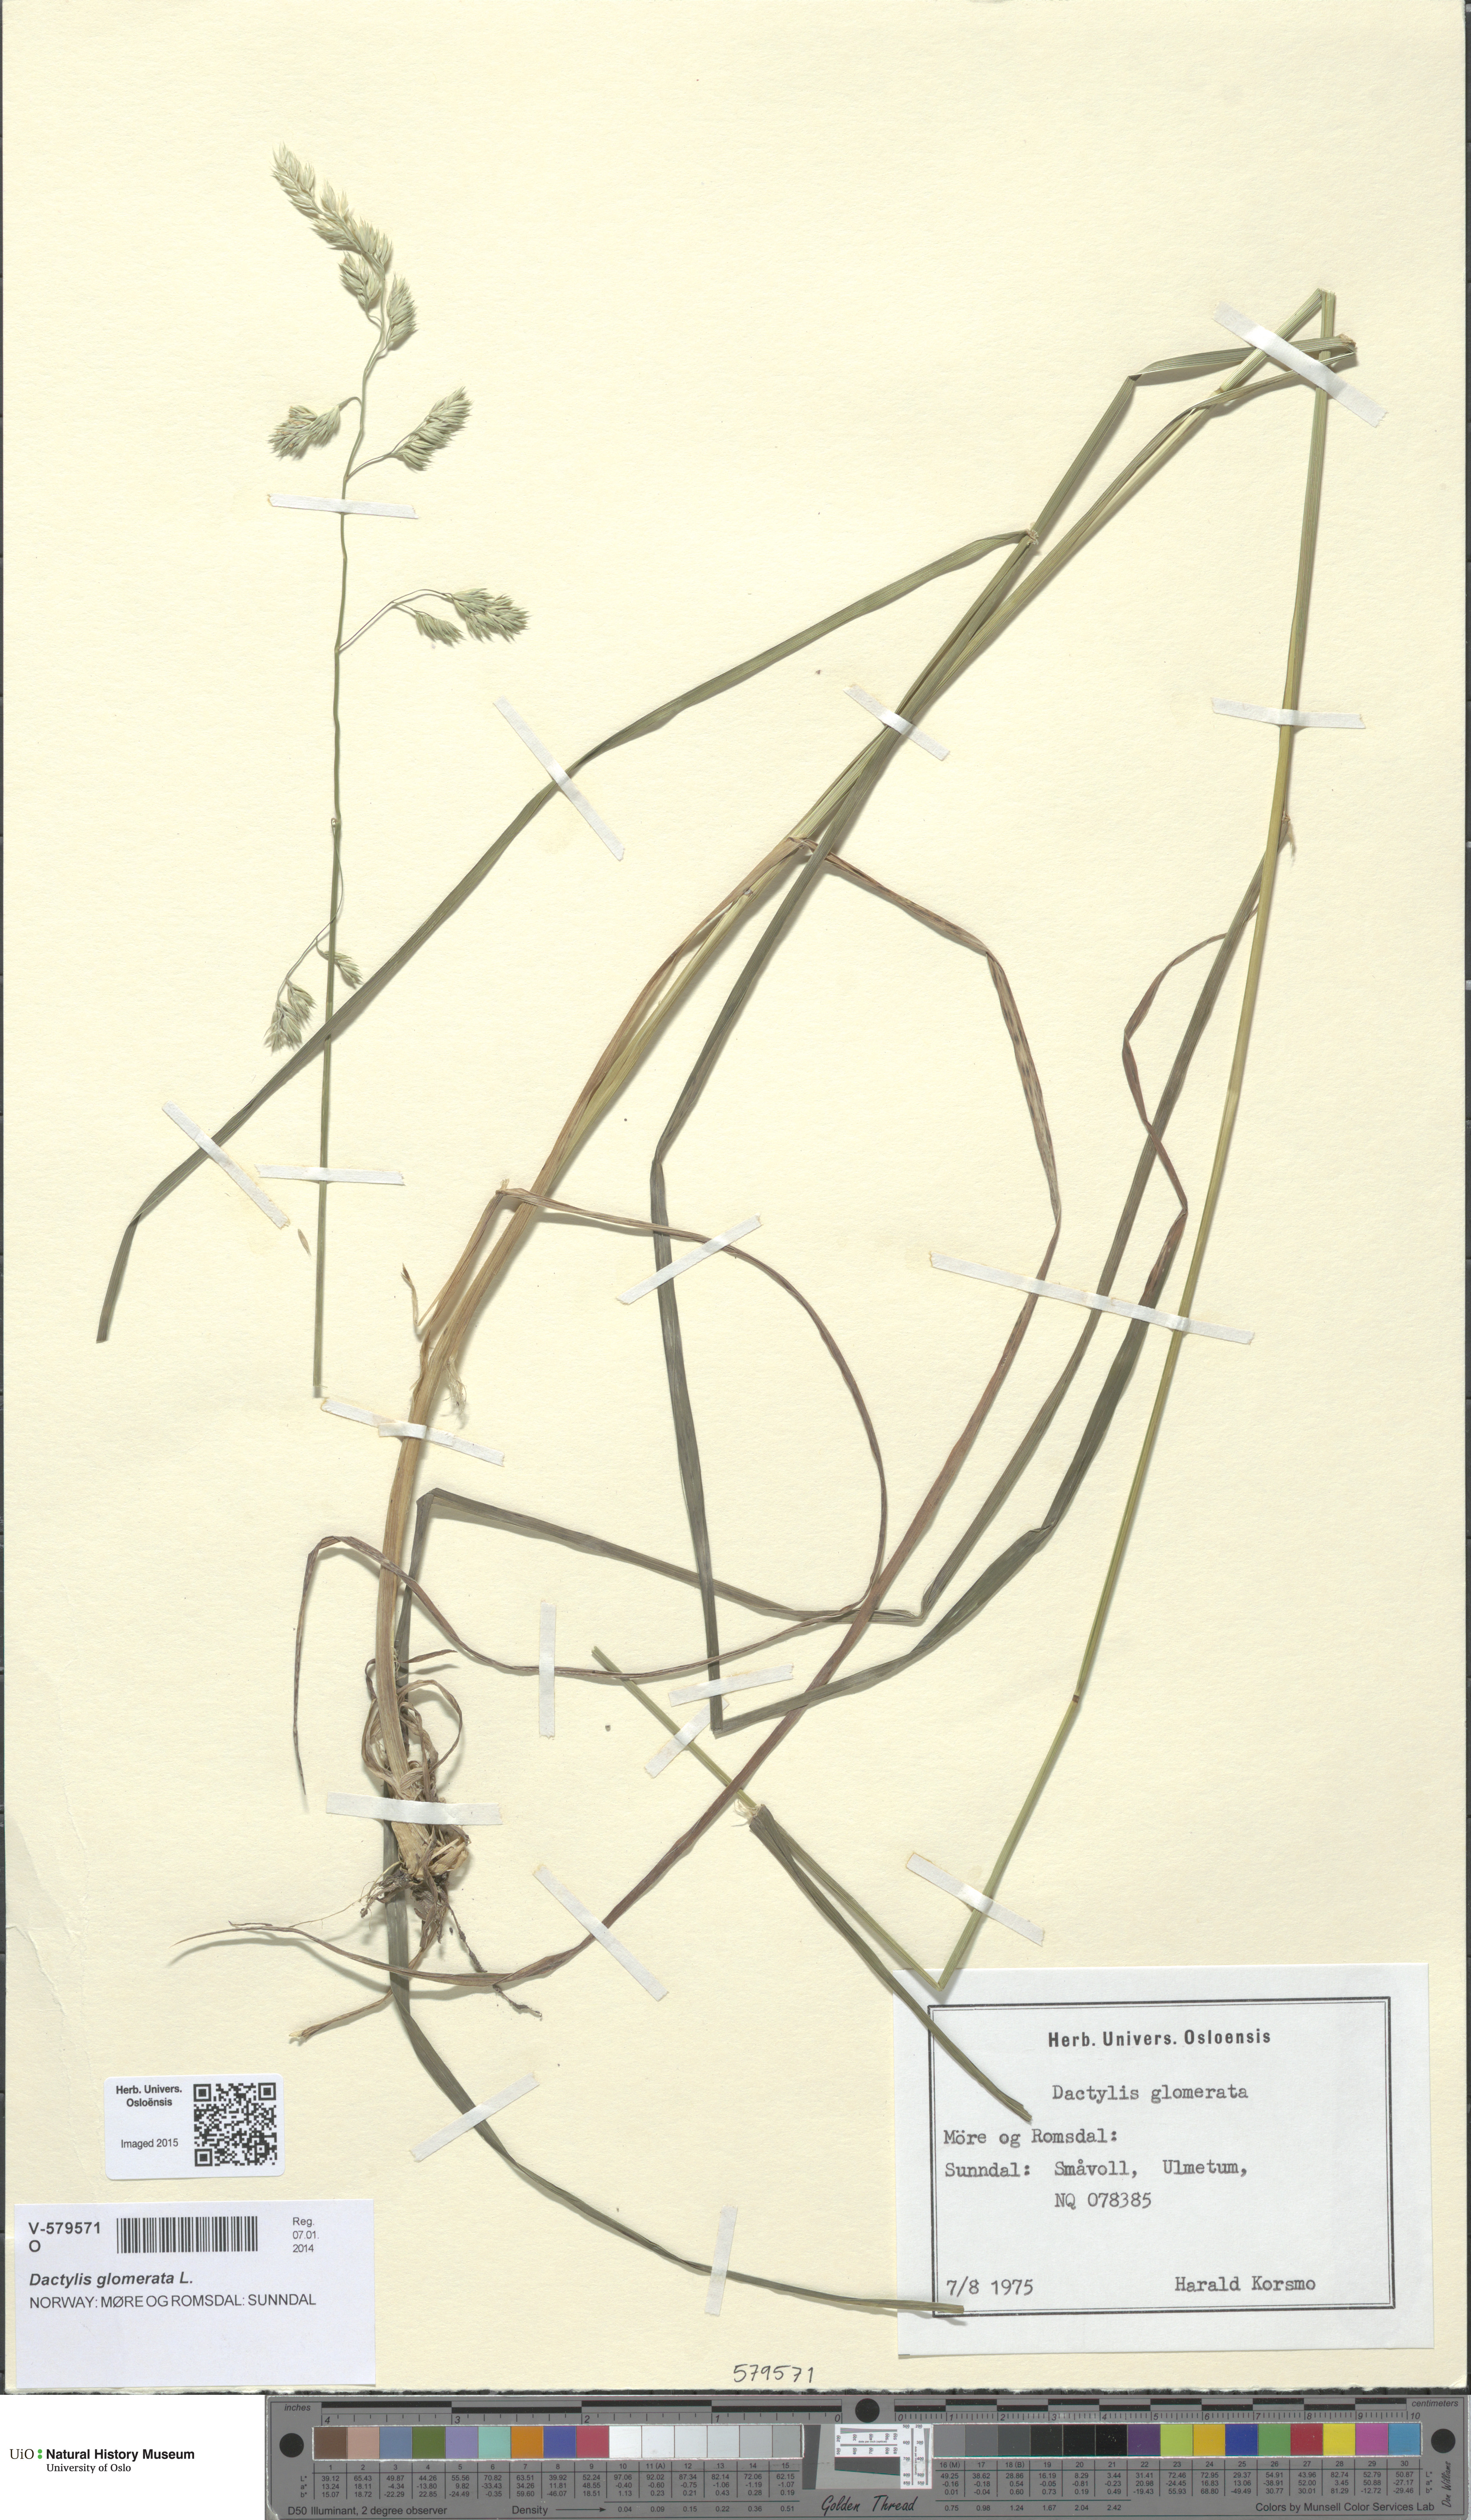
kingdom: Plantae
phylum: Tracheophyta
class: Liliopsida
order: Poales
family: Poaceae
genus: Dactylis
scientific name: Dactylis glomerata
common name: Orchardgrass
